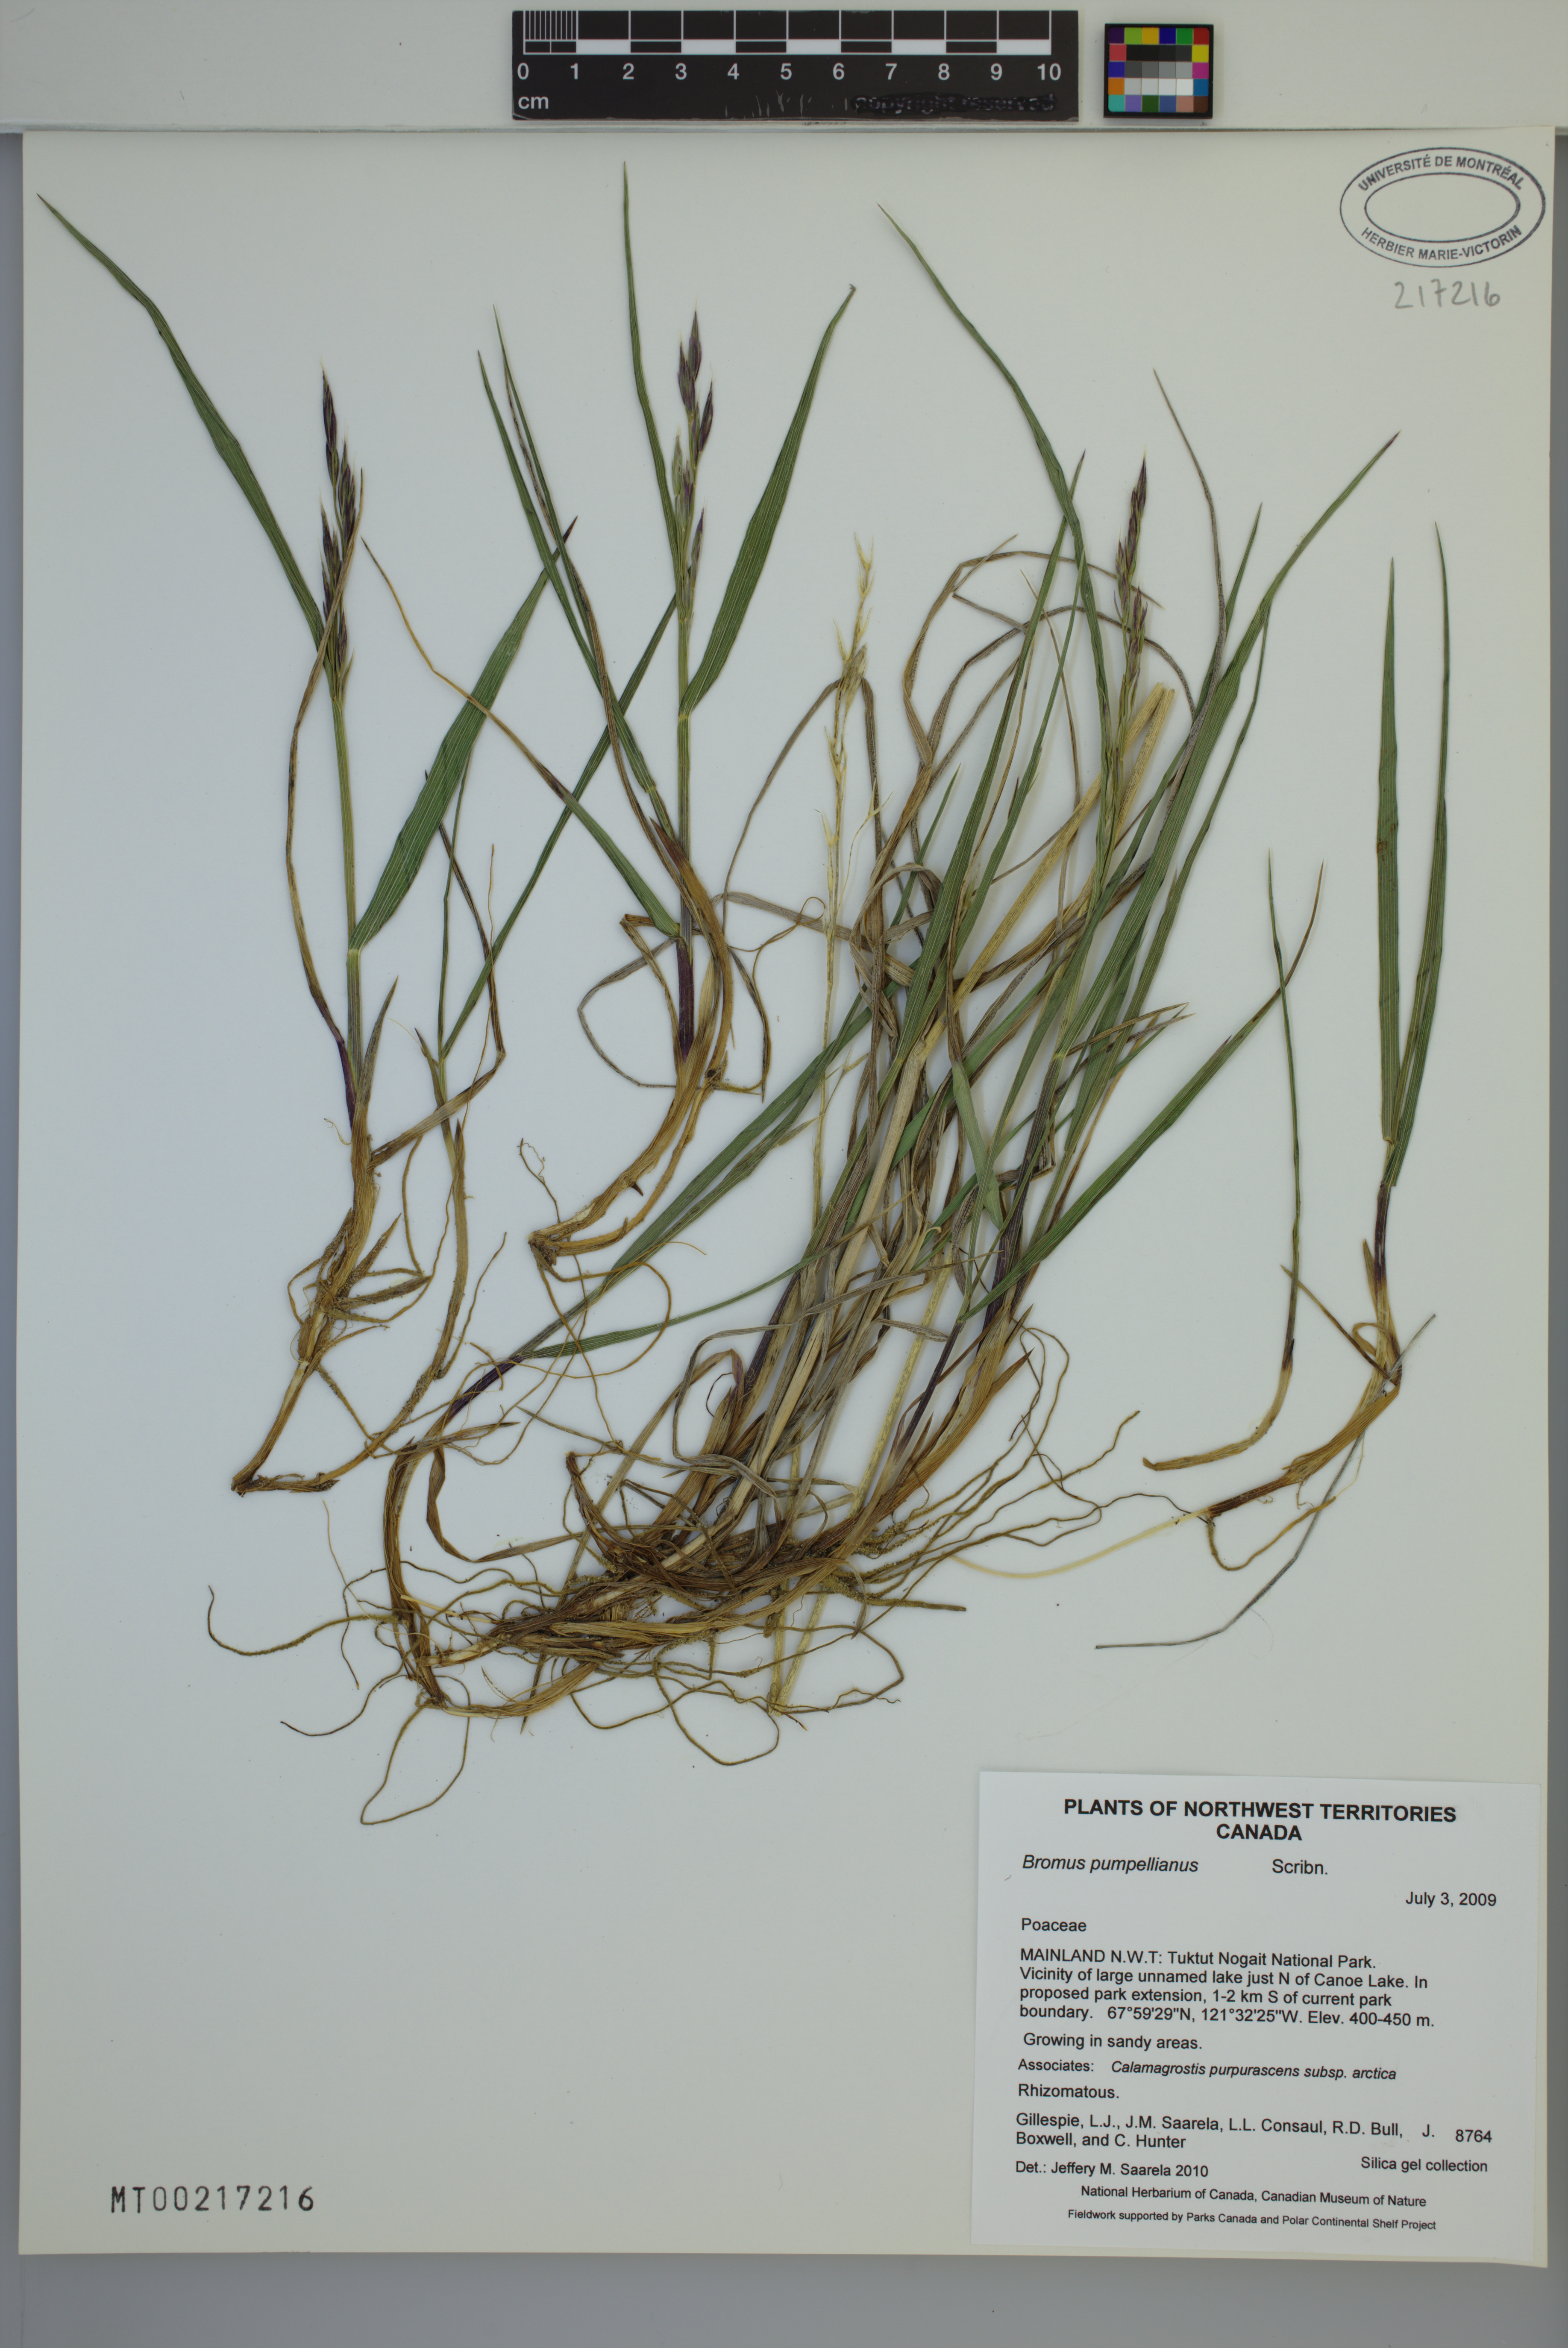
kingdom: Plantae
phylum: Tracheophyta
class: Liliopsida
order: Poales
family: Poaceae
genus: Bromus
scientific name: Bromus pumpellianus
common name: Pumpelly's brome
